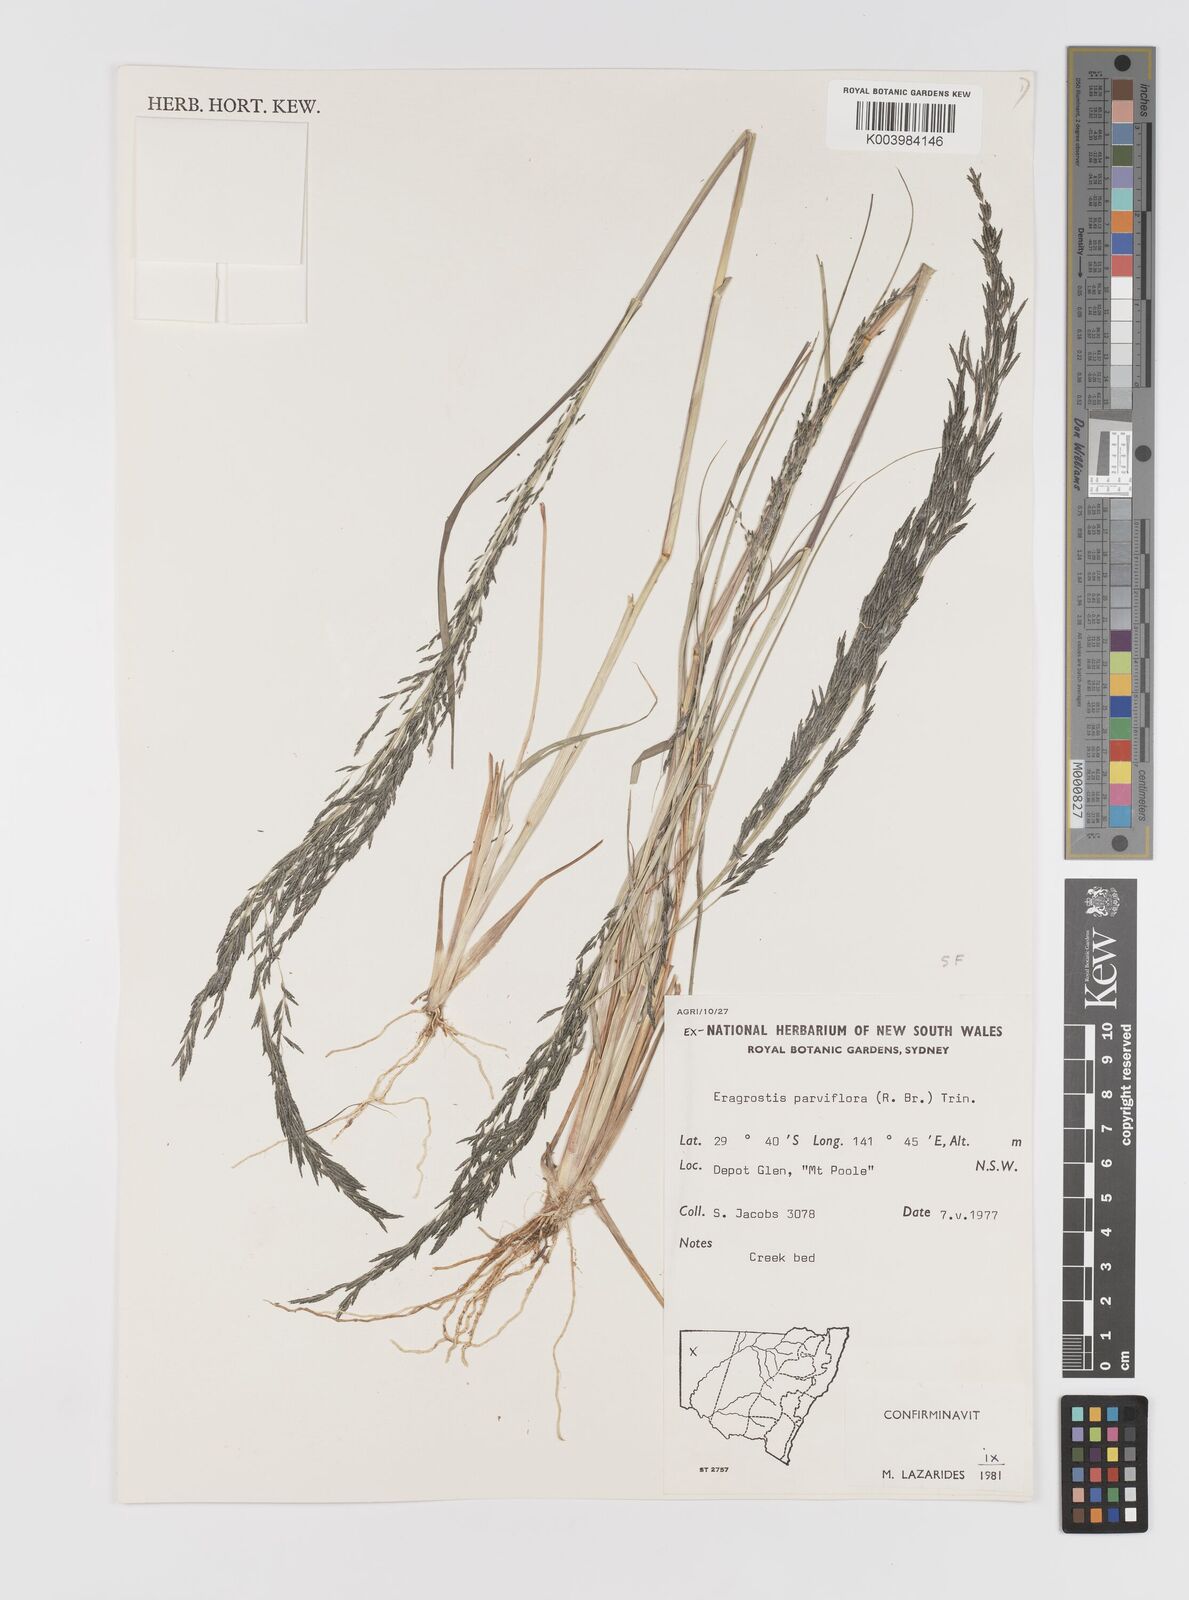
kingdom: Plantae
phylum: Tracheophyta
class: Liliopsida
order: Poales
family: Poaceae
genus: Eragrostis
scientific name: Eragrostis parviflora
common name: Weeping love-grass
